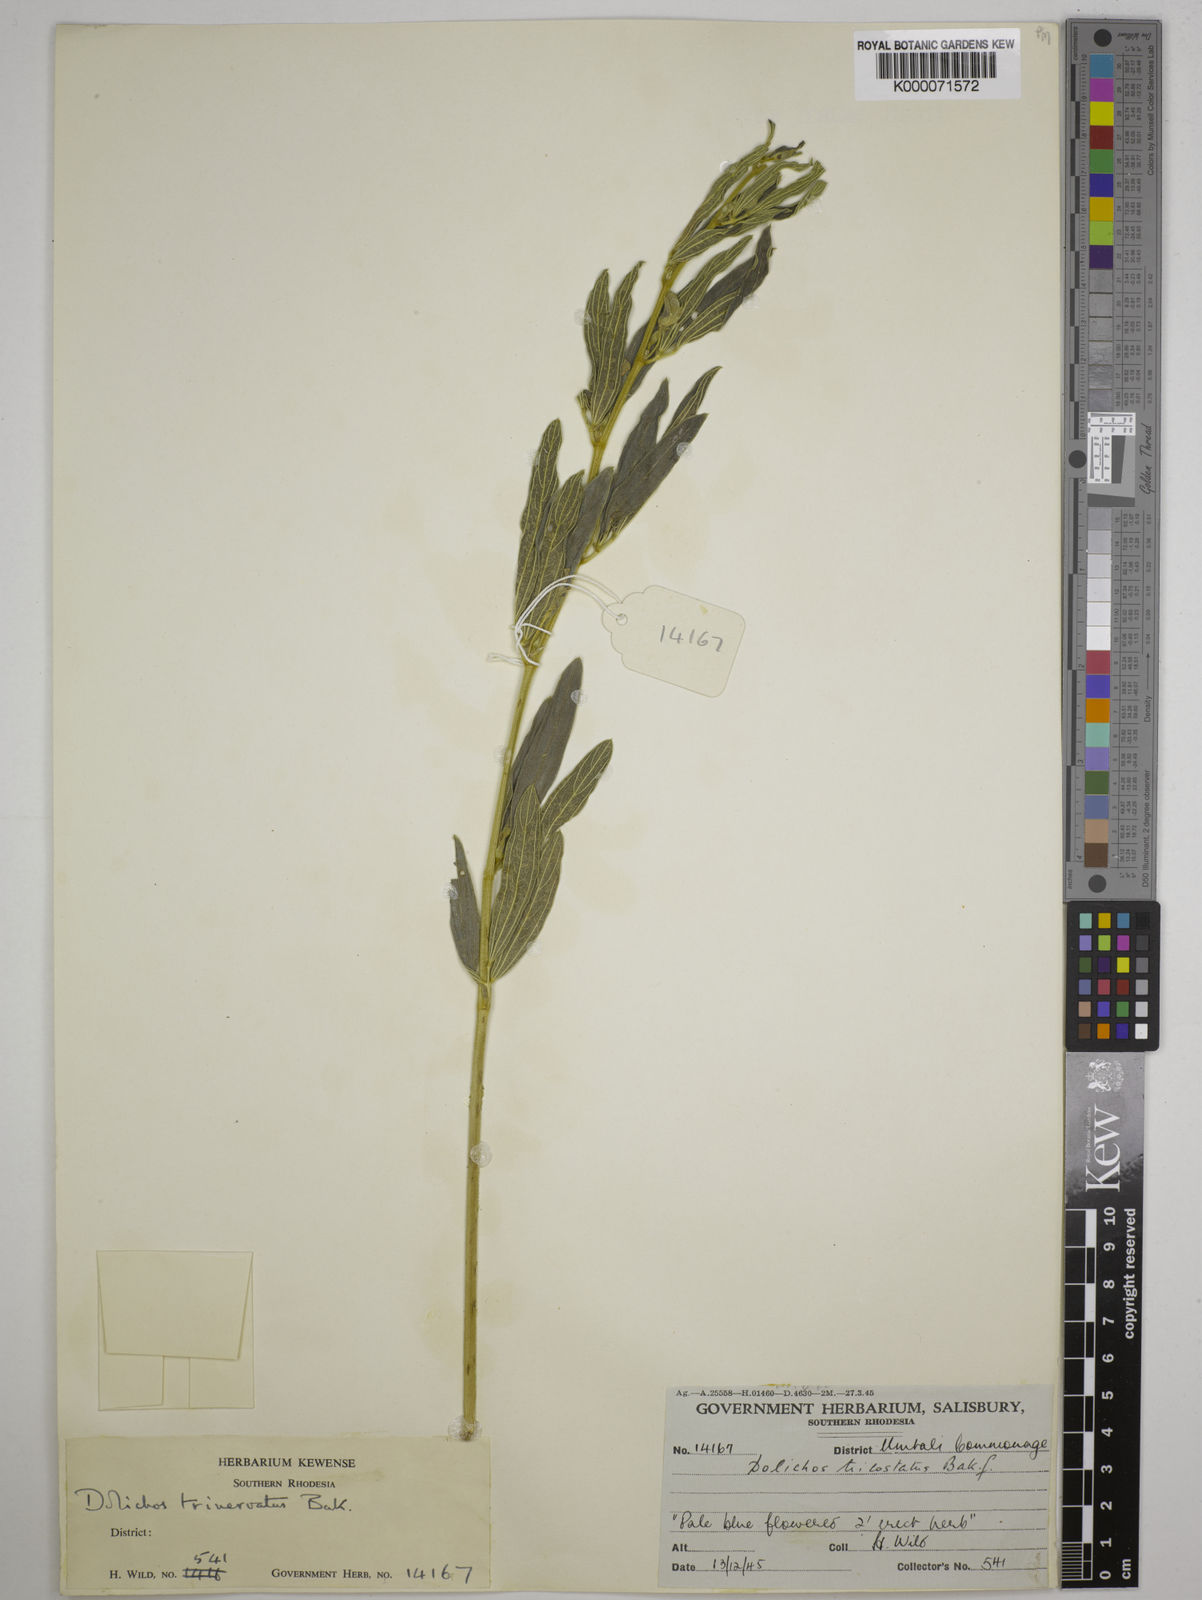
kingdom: Plantae
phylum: Tracheophyta
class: Magnoliopsida
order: Fabales
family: Fabaceae
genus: Dolichos
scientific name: Dolichos trinervatus
